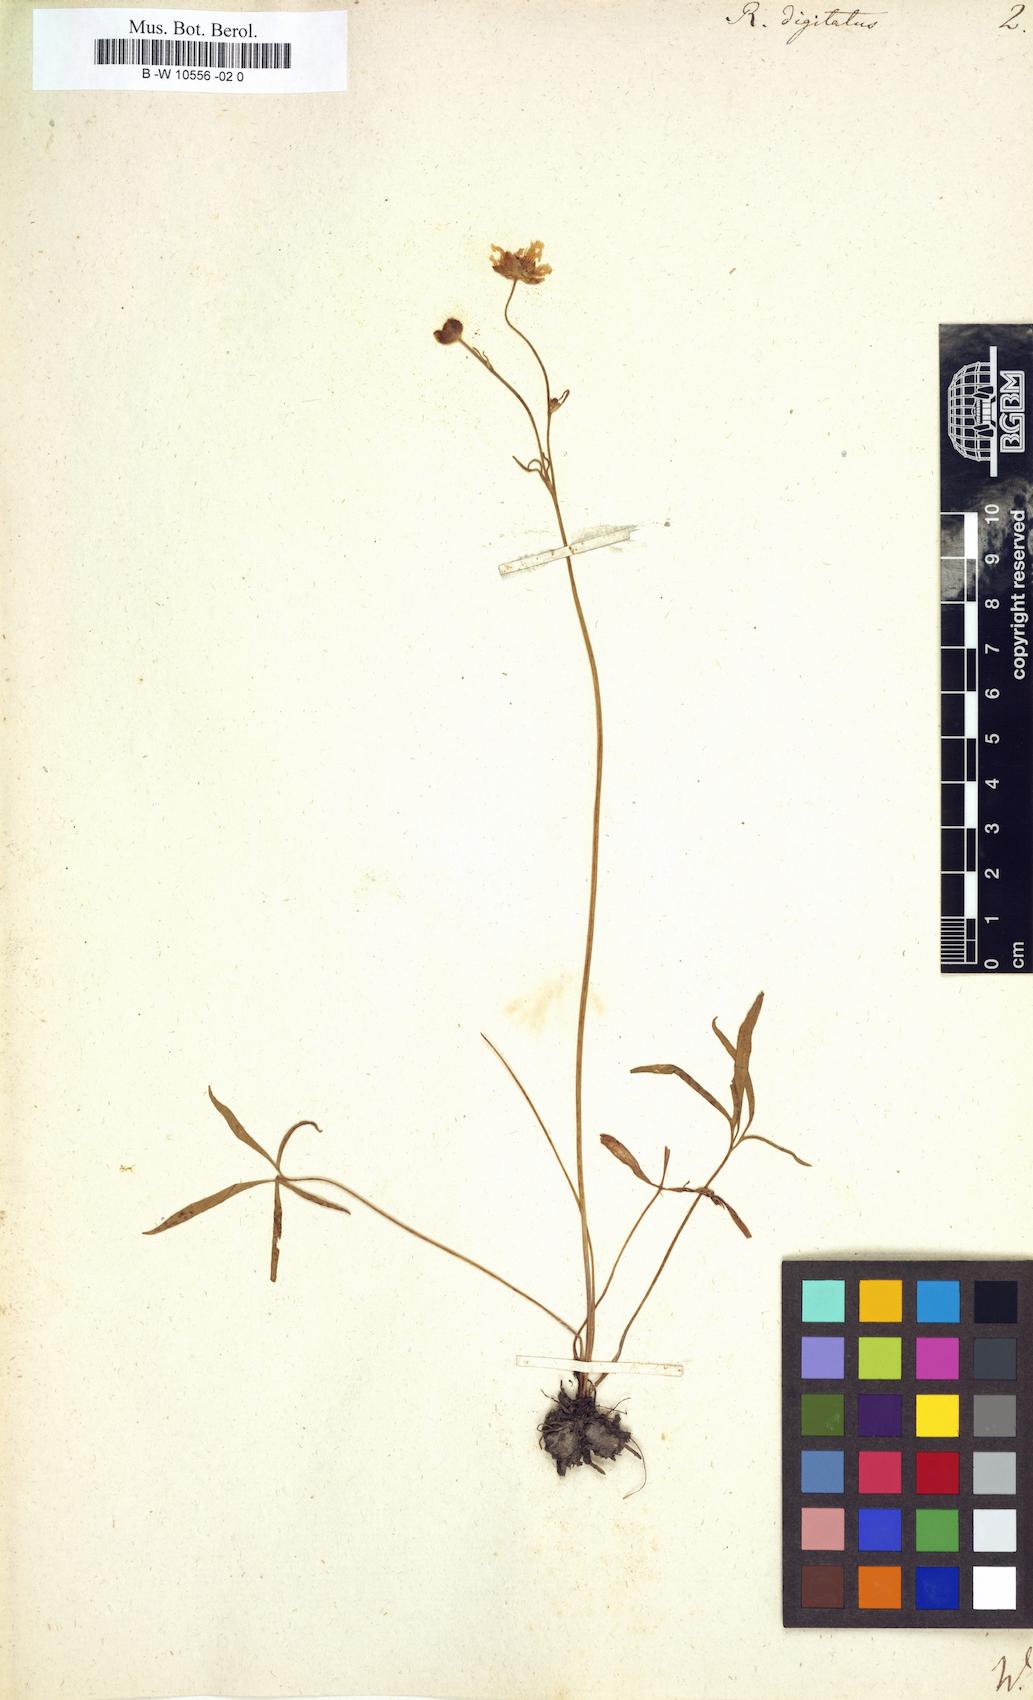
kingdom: Plantae
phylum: Tracheophyta
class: Magnoliopsida
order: Ranunculales
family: Ranunculaceae
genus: Ranunculus
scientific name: Ranunculus digitatus
